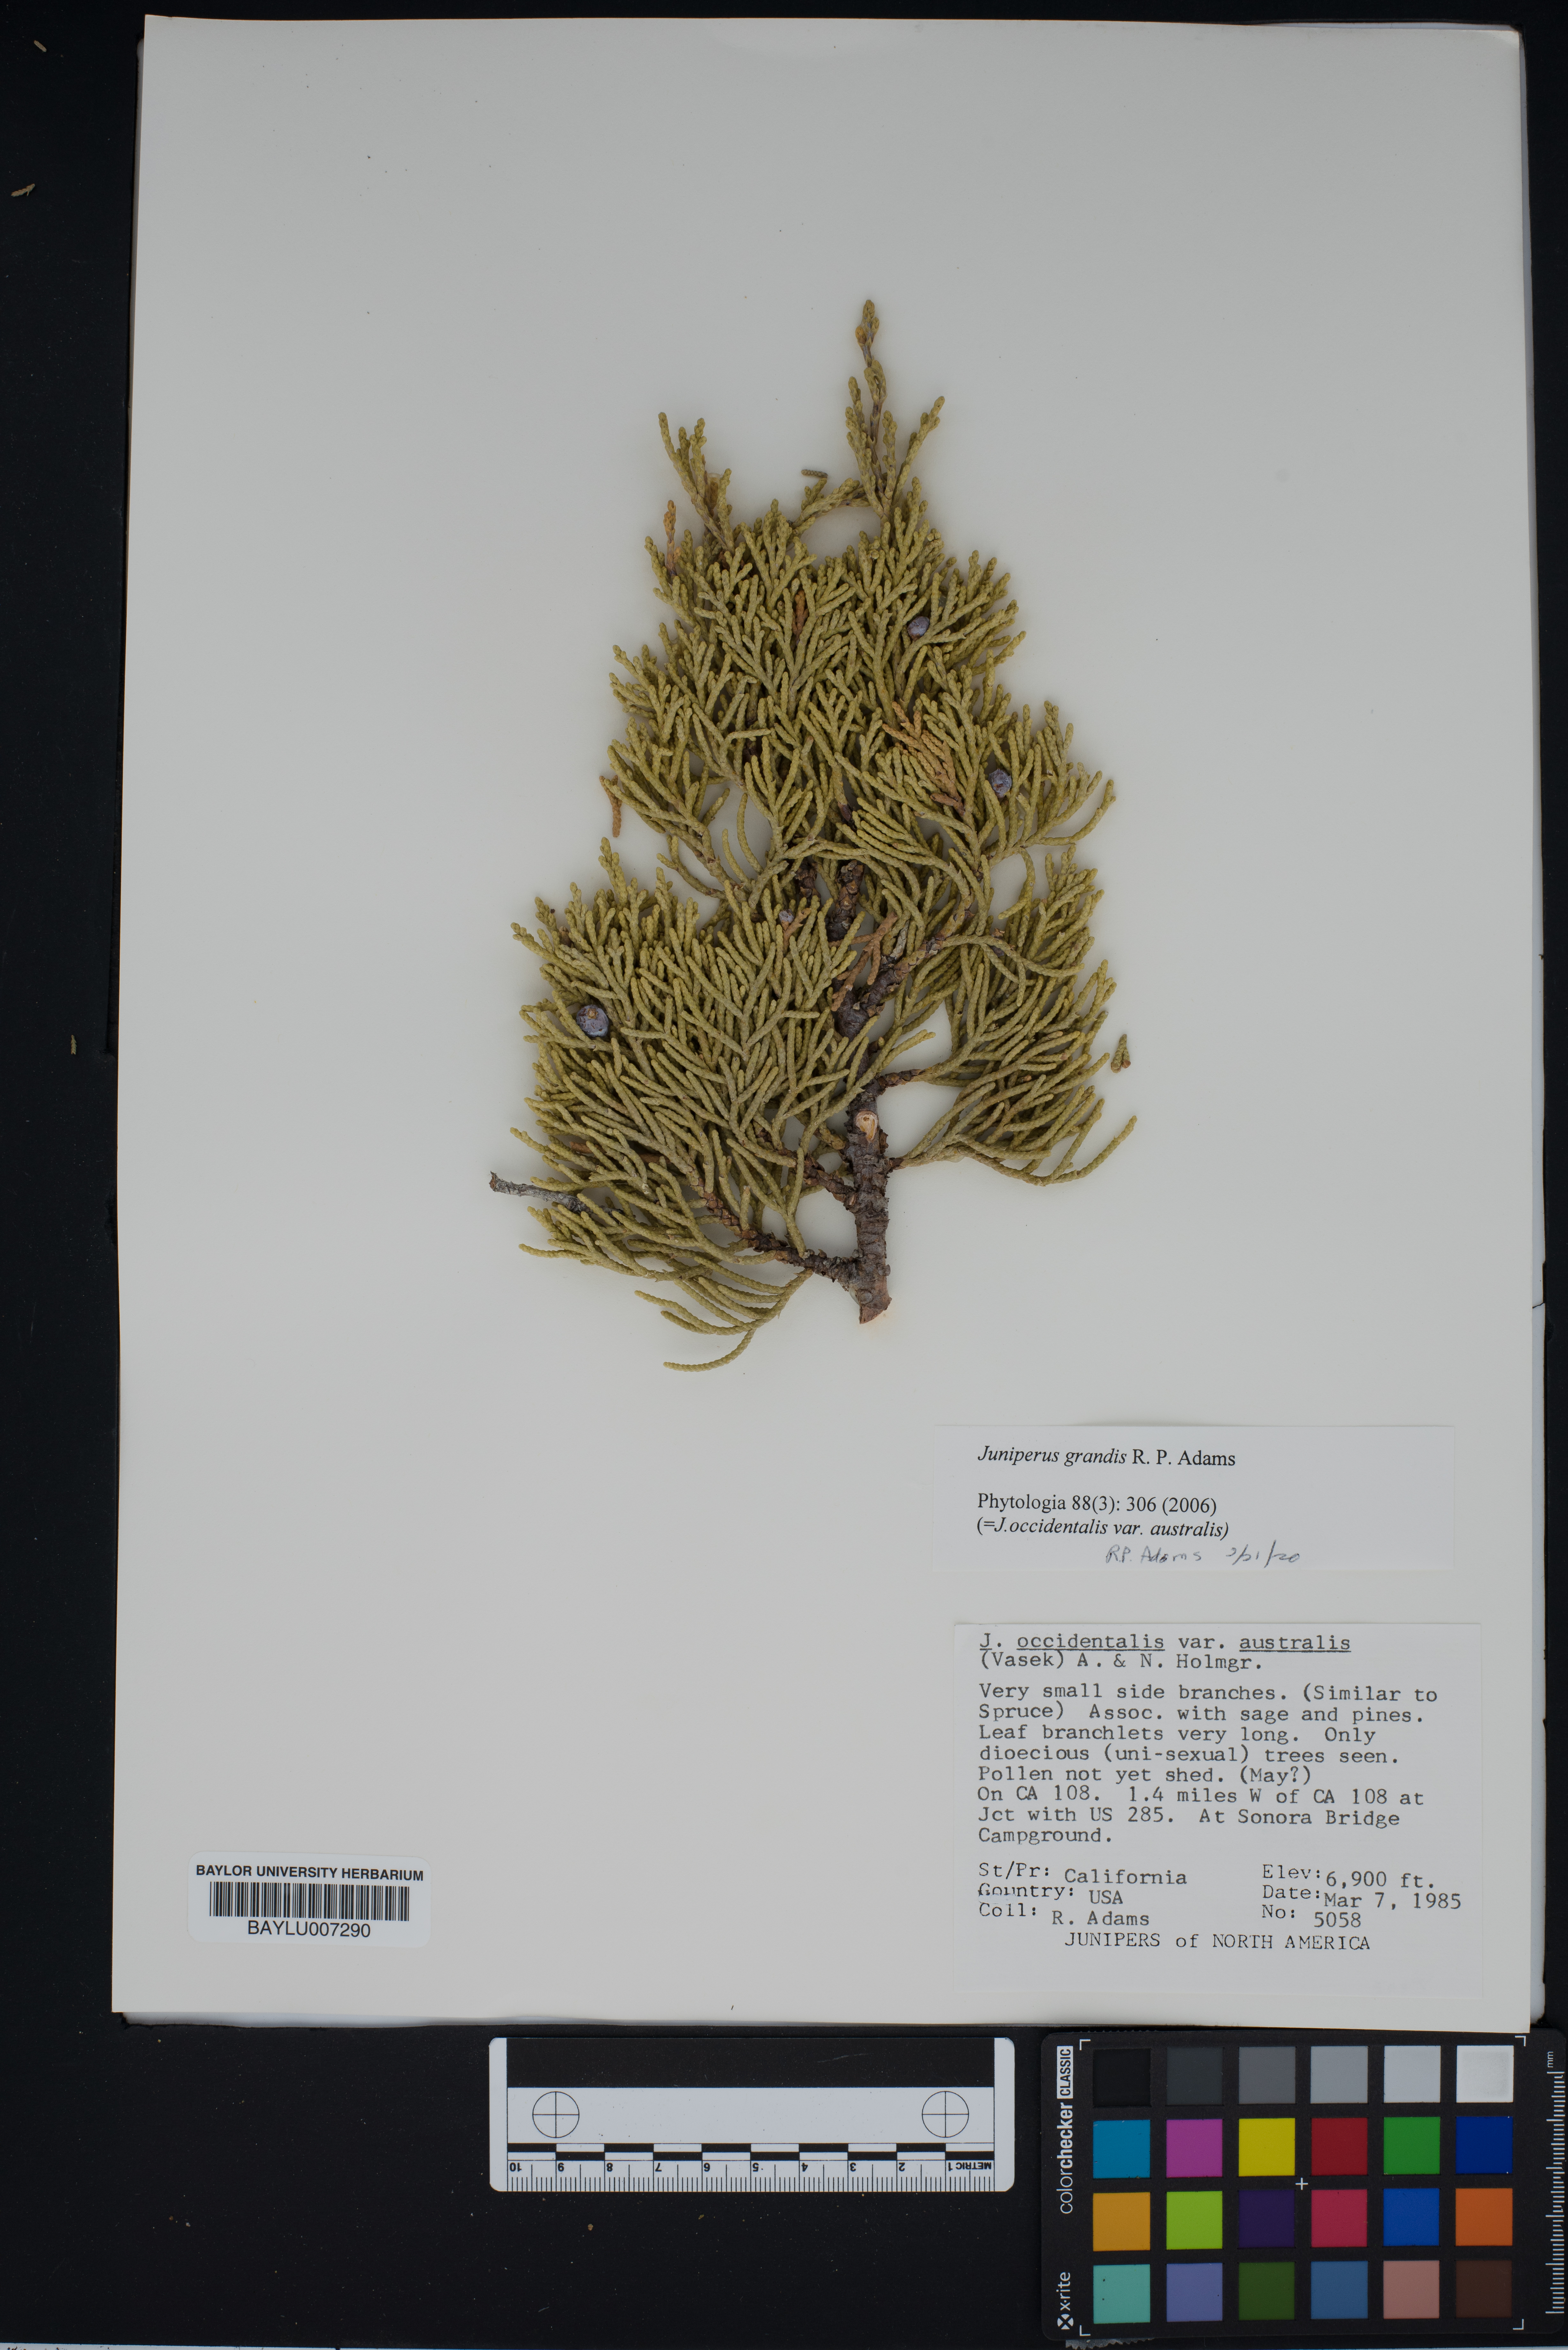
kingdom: Plantae
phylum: Tracheophyta
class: Pinopsida
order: Pinales
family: Cupressaceae
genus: Juniperus
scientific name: Juniperus occidentalis
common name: Western juniper
